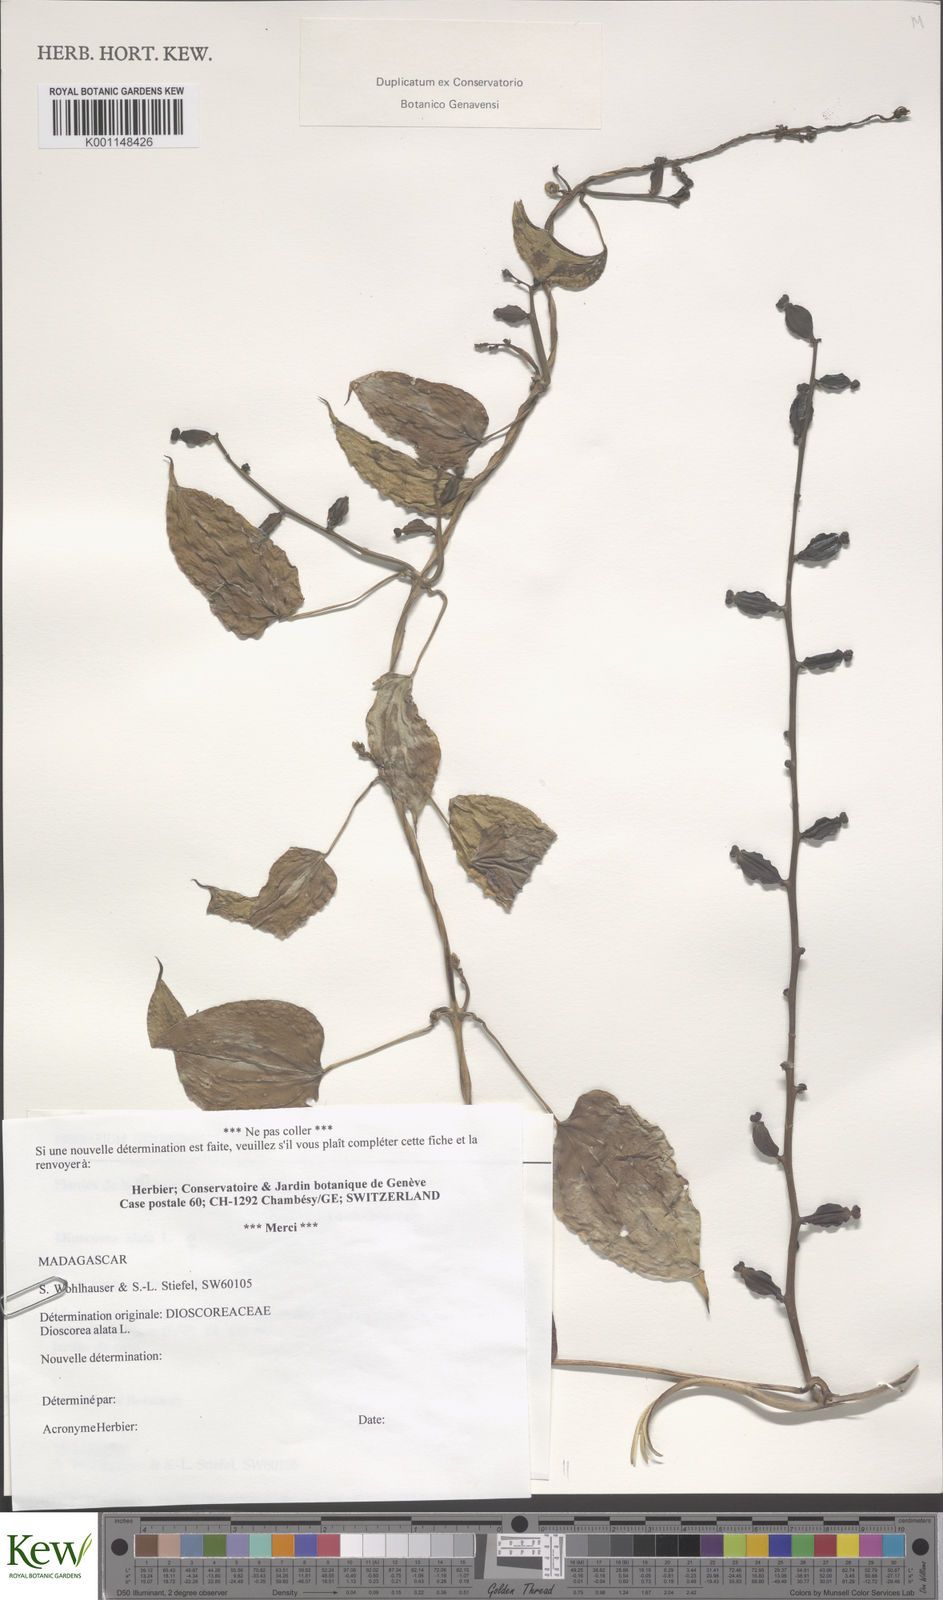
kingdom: Plantae
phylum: Tracheophyta
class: Liliopsida
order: Dioscoreales
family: Dioscoreaceae
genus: Dioscorea
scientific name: Dioscorea alata
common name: Water yam
